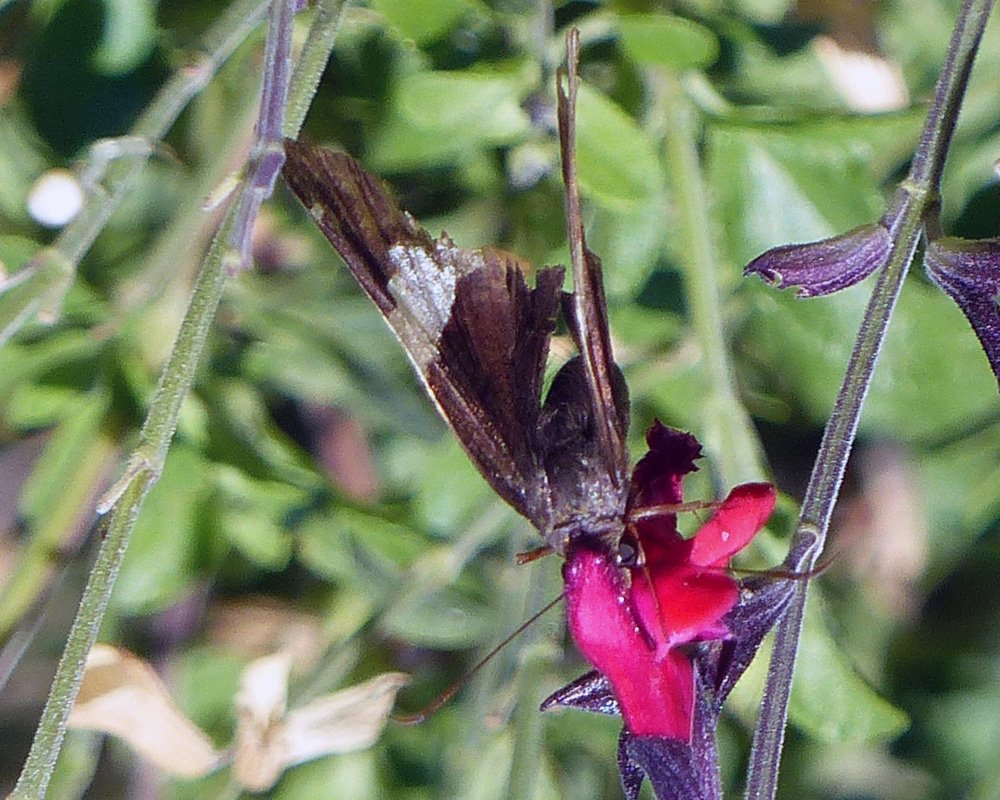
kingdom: Animalia
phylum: Arthropoda
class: Insecta
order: Lepidoptera
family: Hesperiidae
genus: Autochton
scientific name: Autochton cellus
